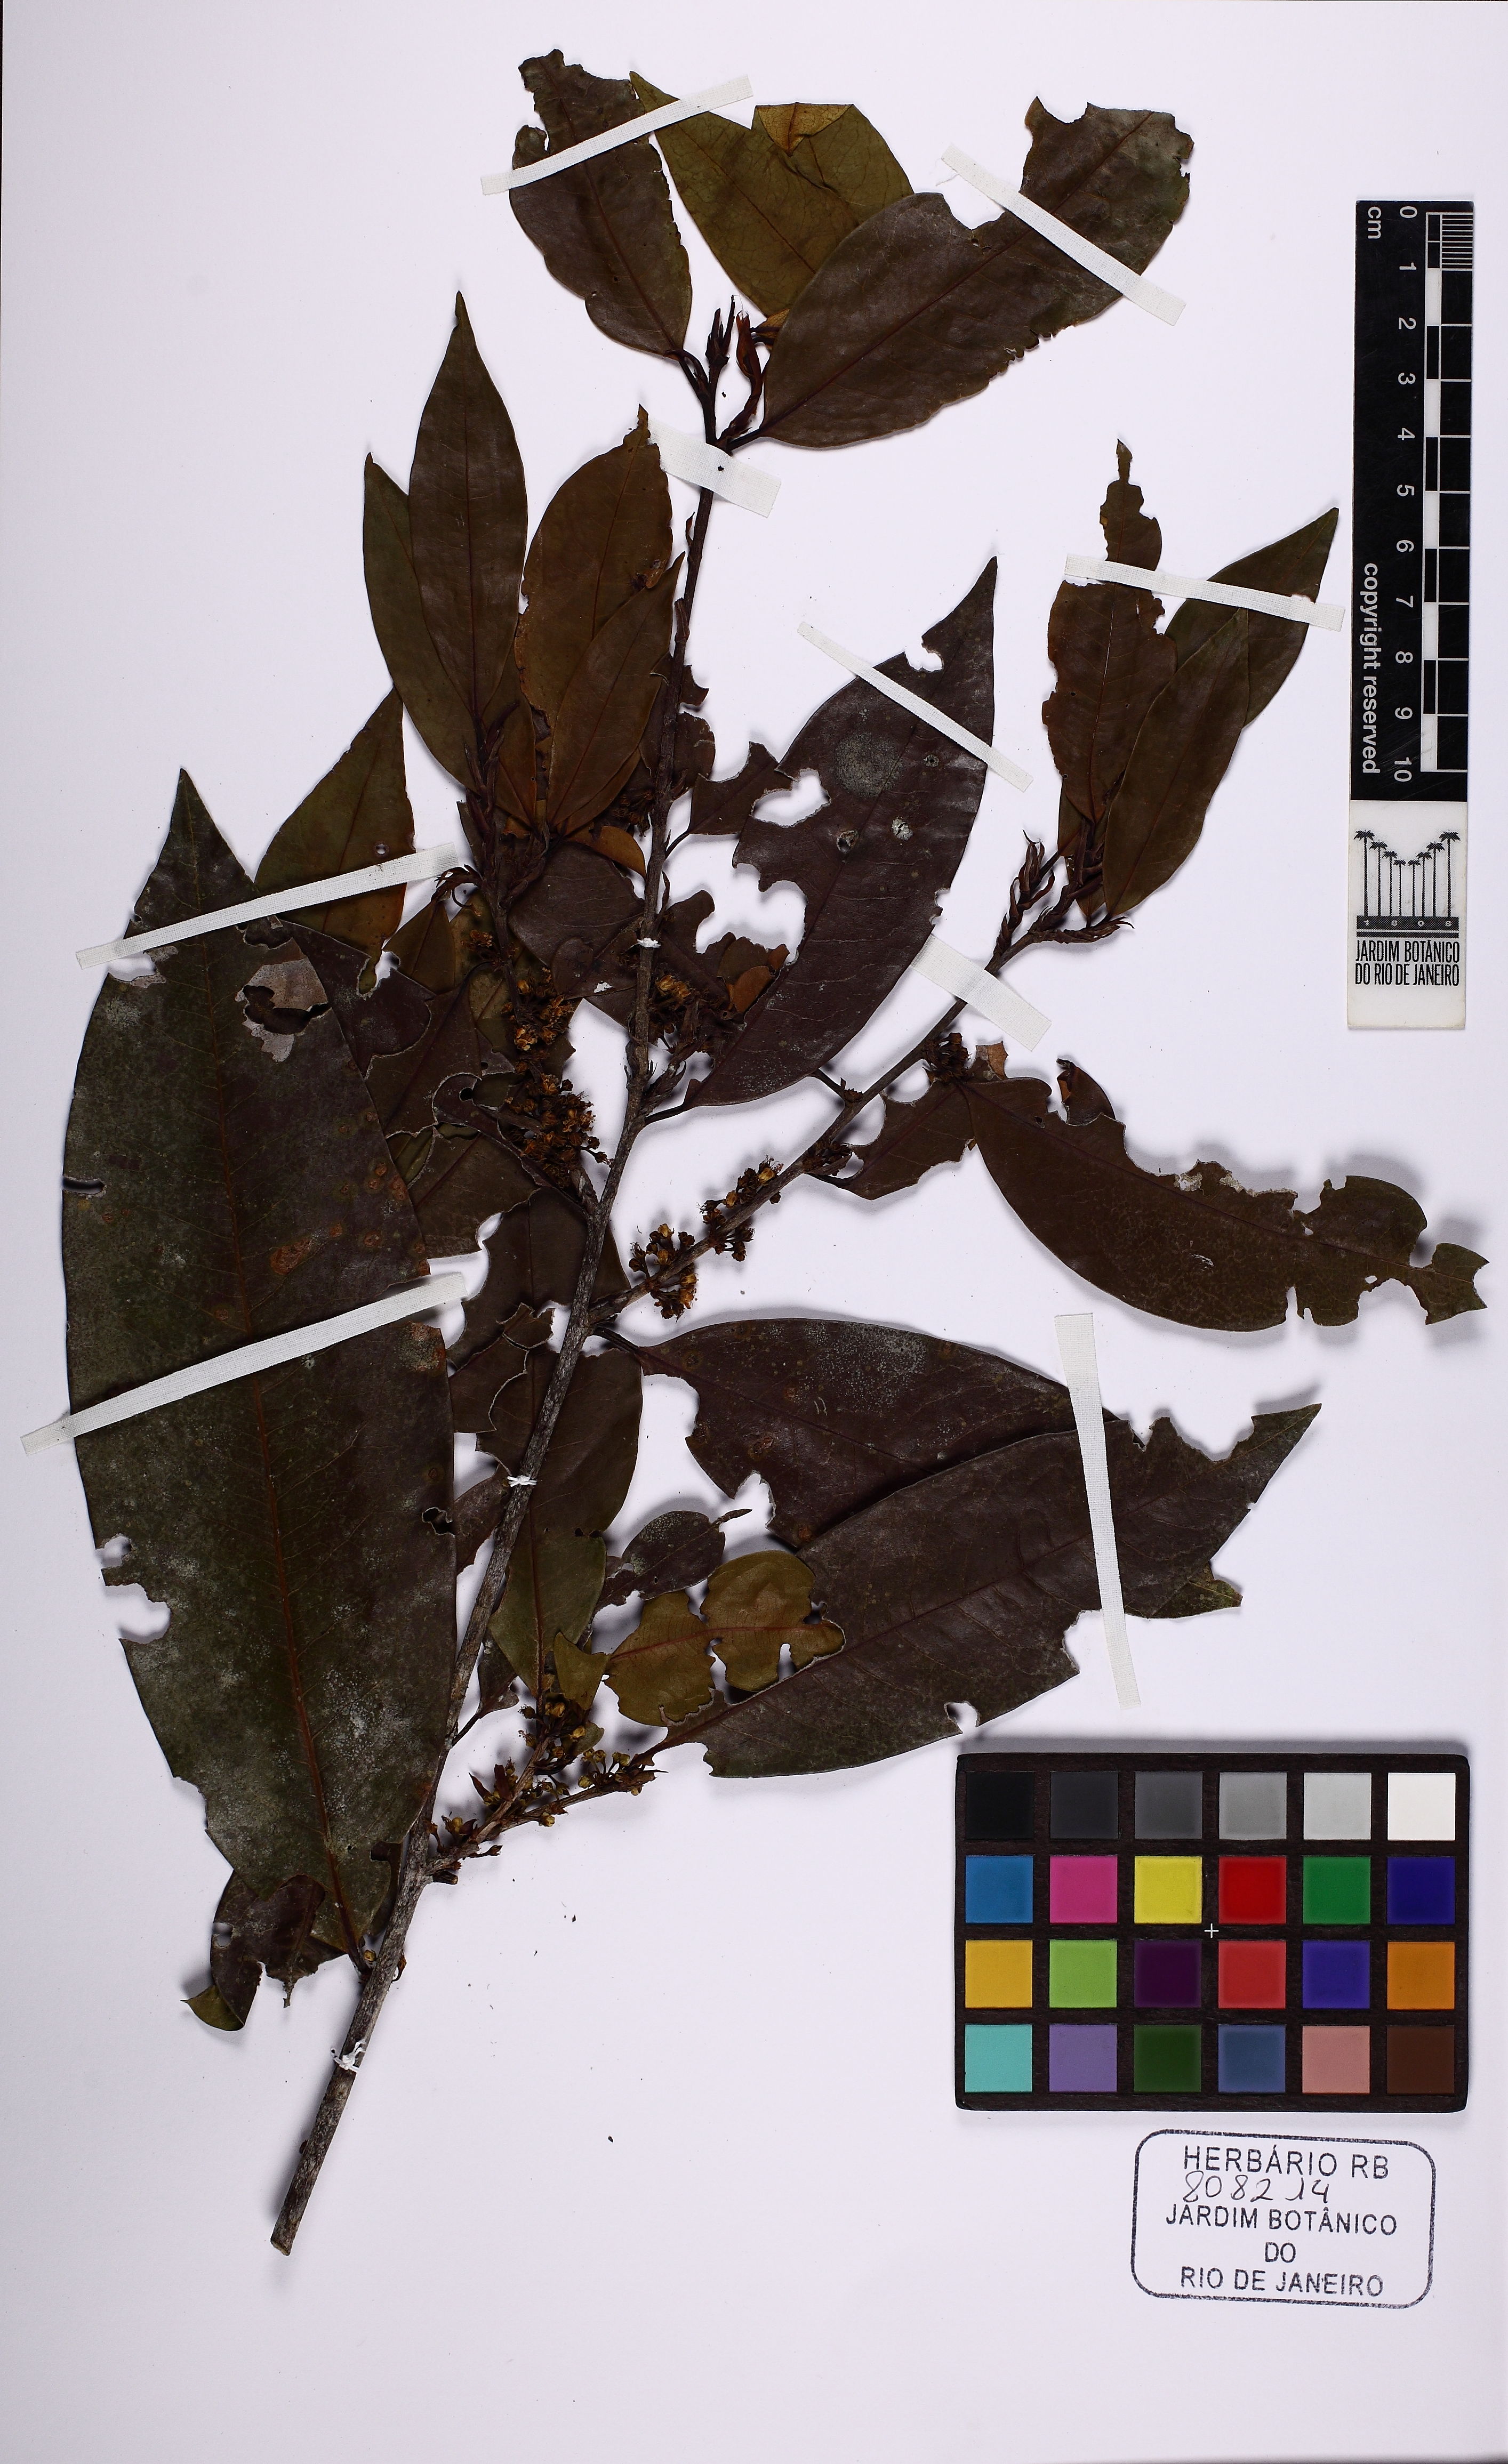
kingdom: Plantae
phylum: Tracheophyta
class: Magnoliopsida
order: Malpighiales
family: Erythroxylaceae
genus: Erythroxylum
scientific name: Erythroxylum
